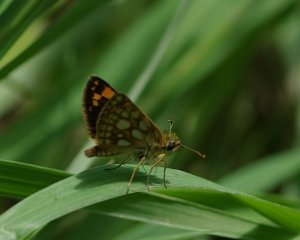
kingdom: Animalia
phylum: Arthropoda
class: Insecta
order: Lepidoptera
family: Hesperiidae
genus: Carterocephalus
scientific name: Carterocephalus palaemon
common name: Chequered Skipper
